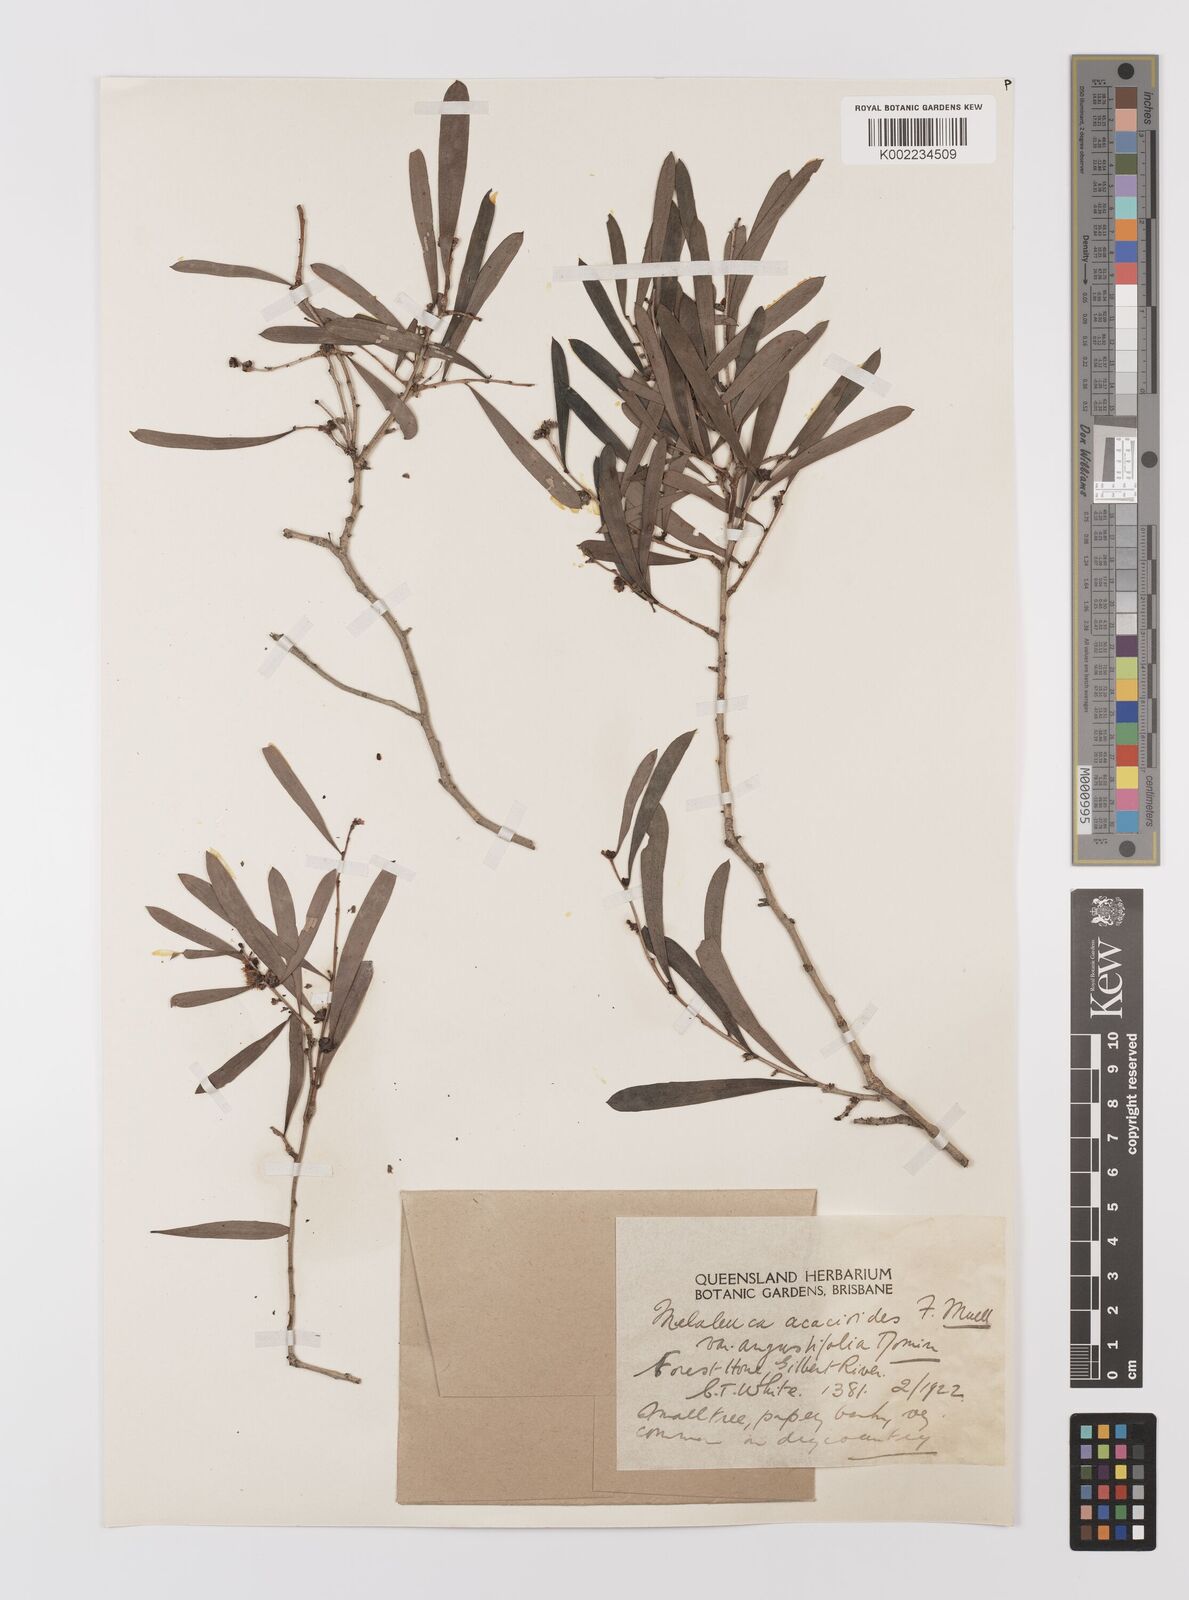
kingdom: Plantae
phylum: Tracheophyta
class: Magnoliopsida
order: Myrtales
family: Myrtaceae
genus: Melaleuca
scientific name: Melaleuca citrolens
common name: Lemon-scented paperbark
